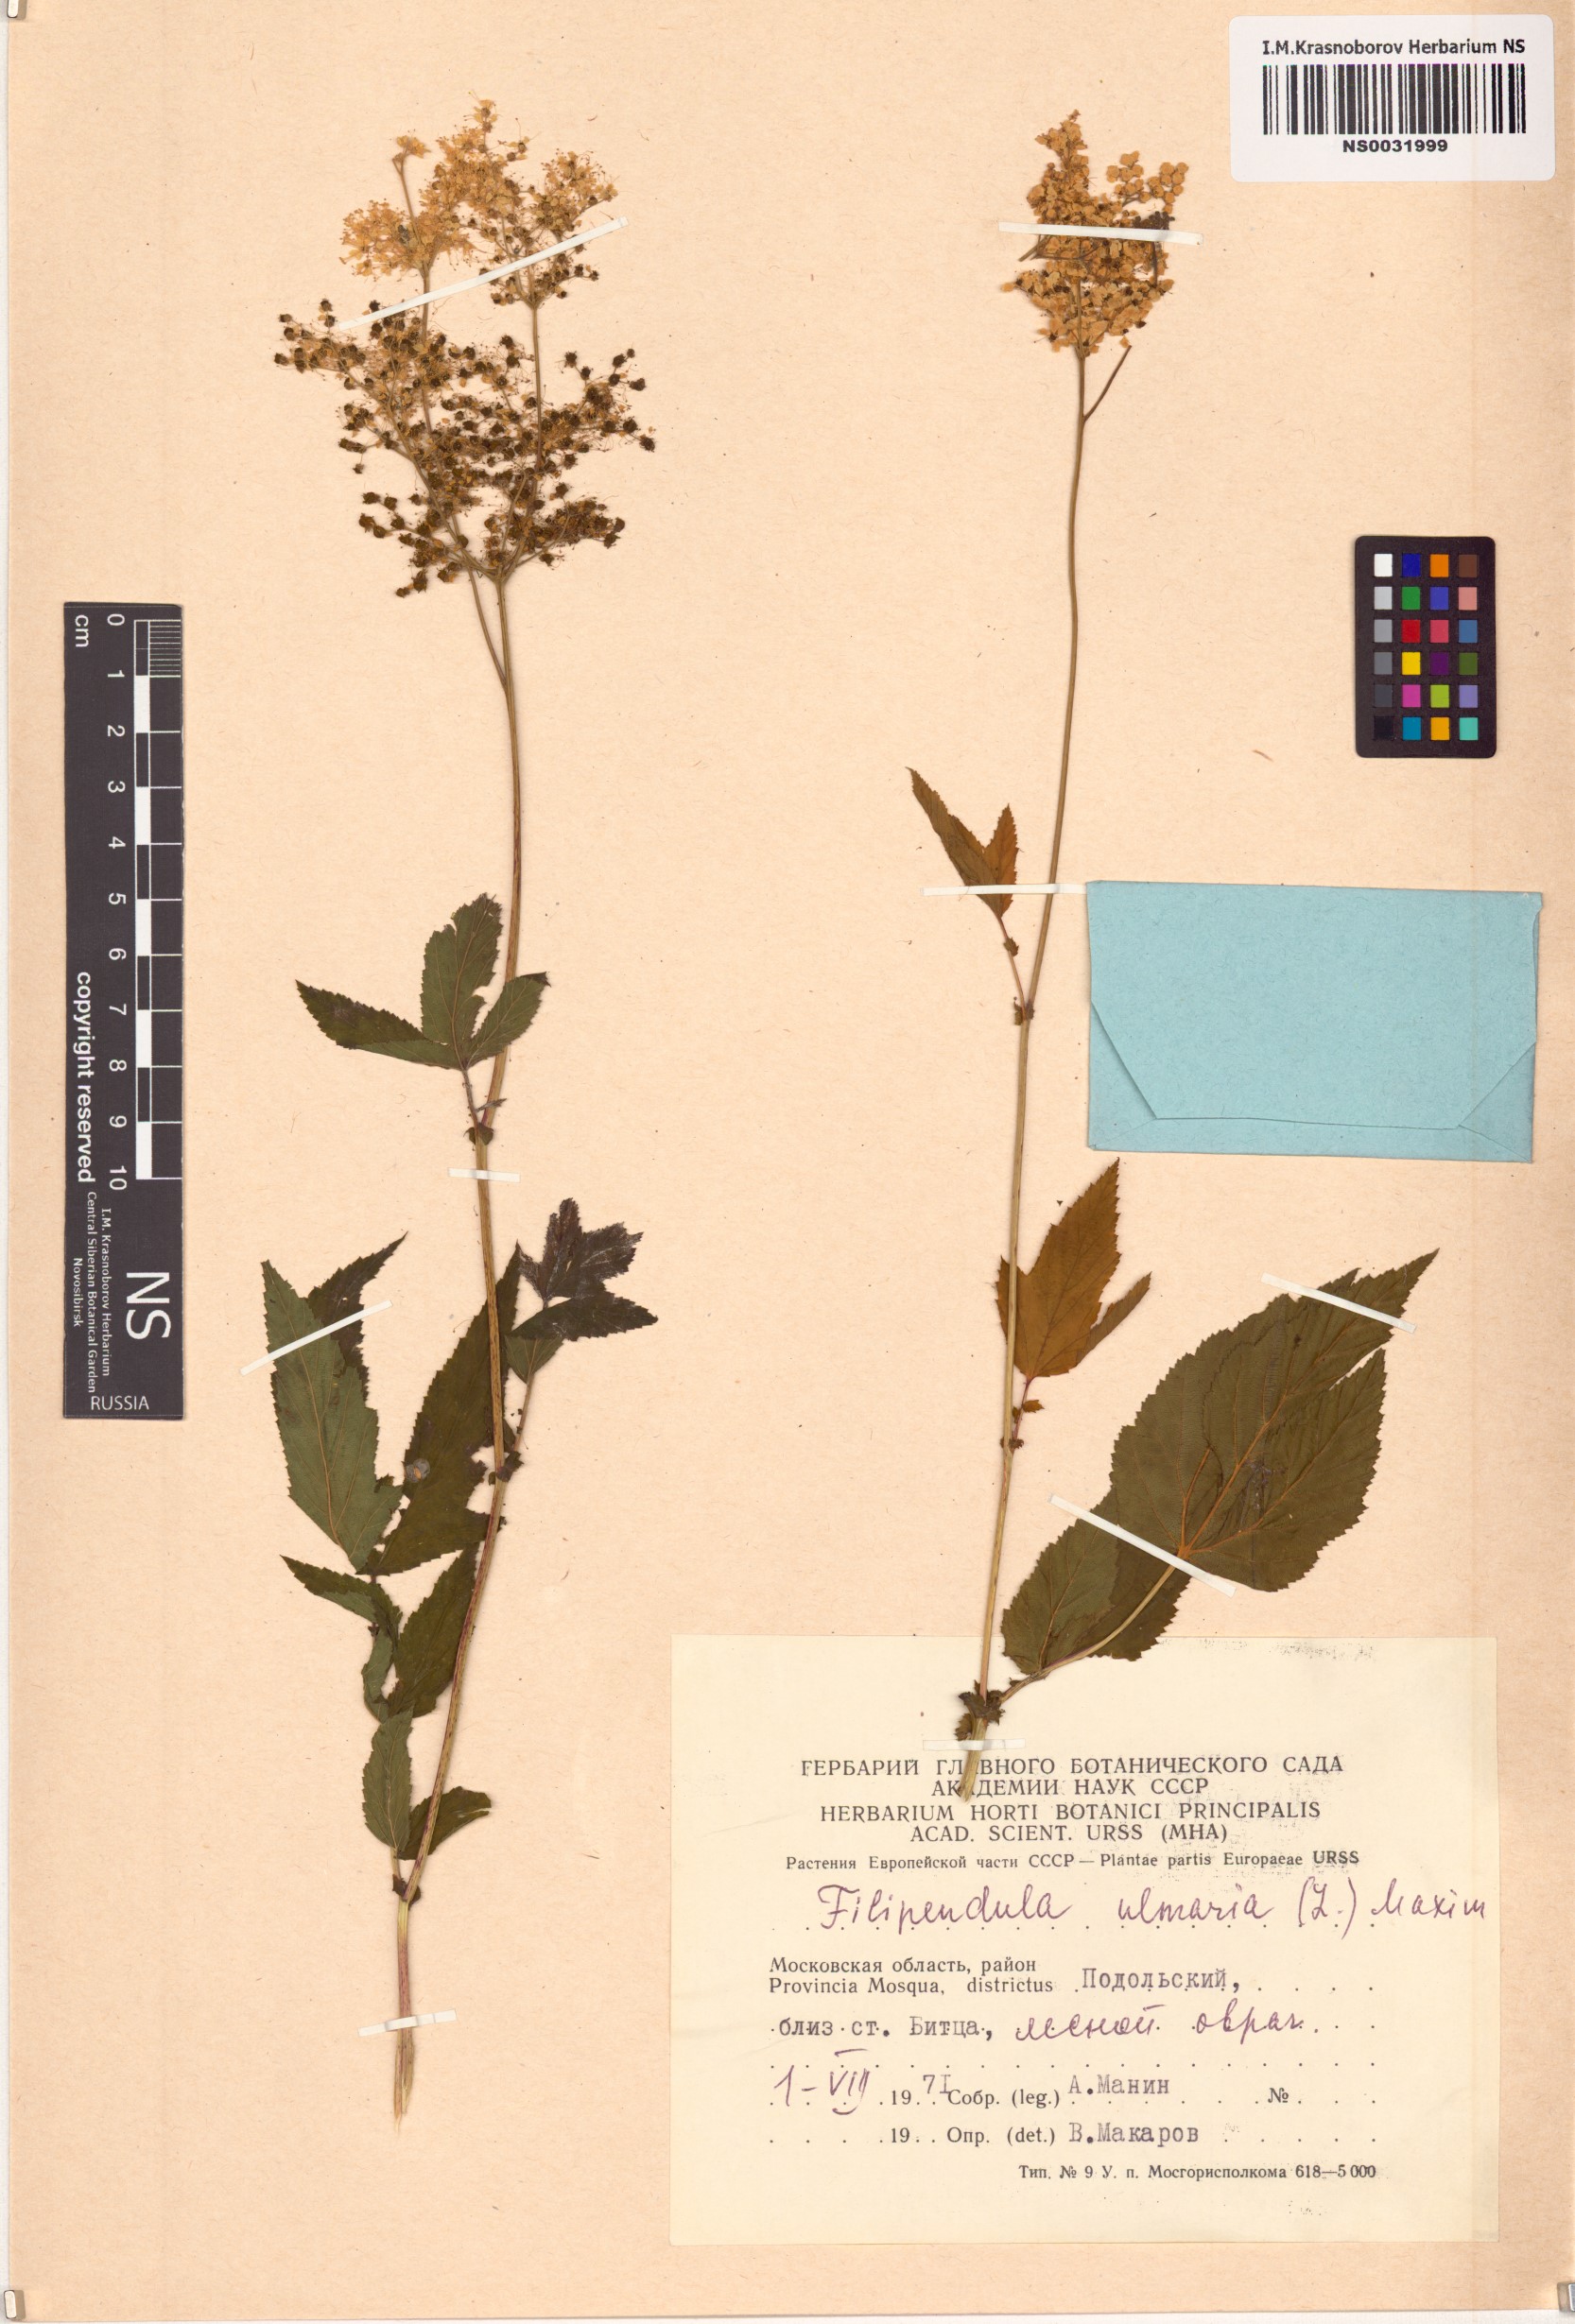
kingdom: Plantae
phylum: Tracheophyta
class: Magnoliopsida
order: Rosales
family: Rosaceae
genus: Filipendula
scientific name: Filipendula ulmaria
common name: Meadowsweet
